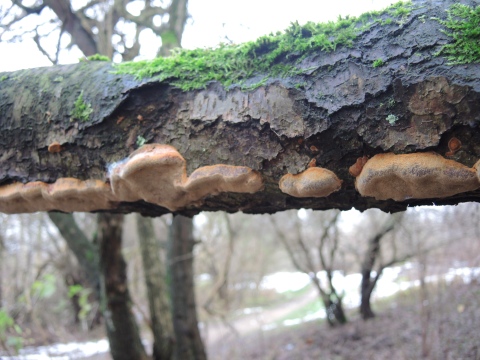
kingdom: Fungi
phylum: Basidiomycota
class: Agaricomycetes
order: Hymenochaetales
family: Hymenochaetaceae
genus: Phellinus
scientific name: Phellinus pomaceus
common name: blomme-ildporesvamp
